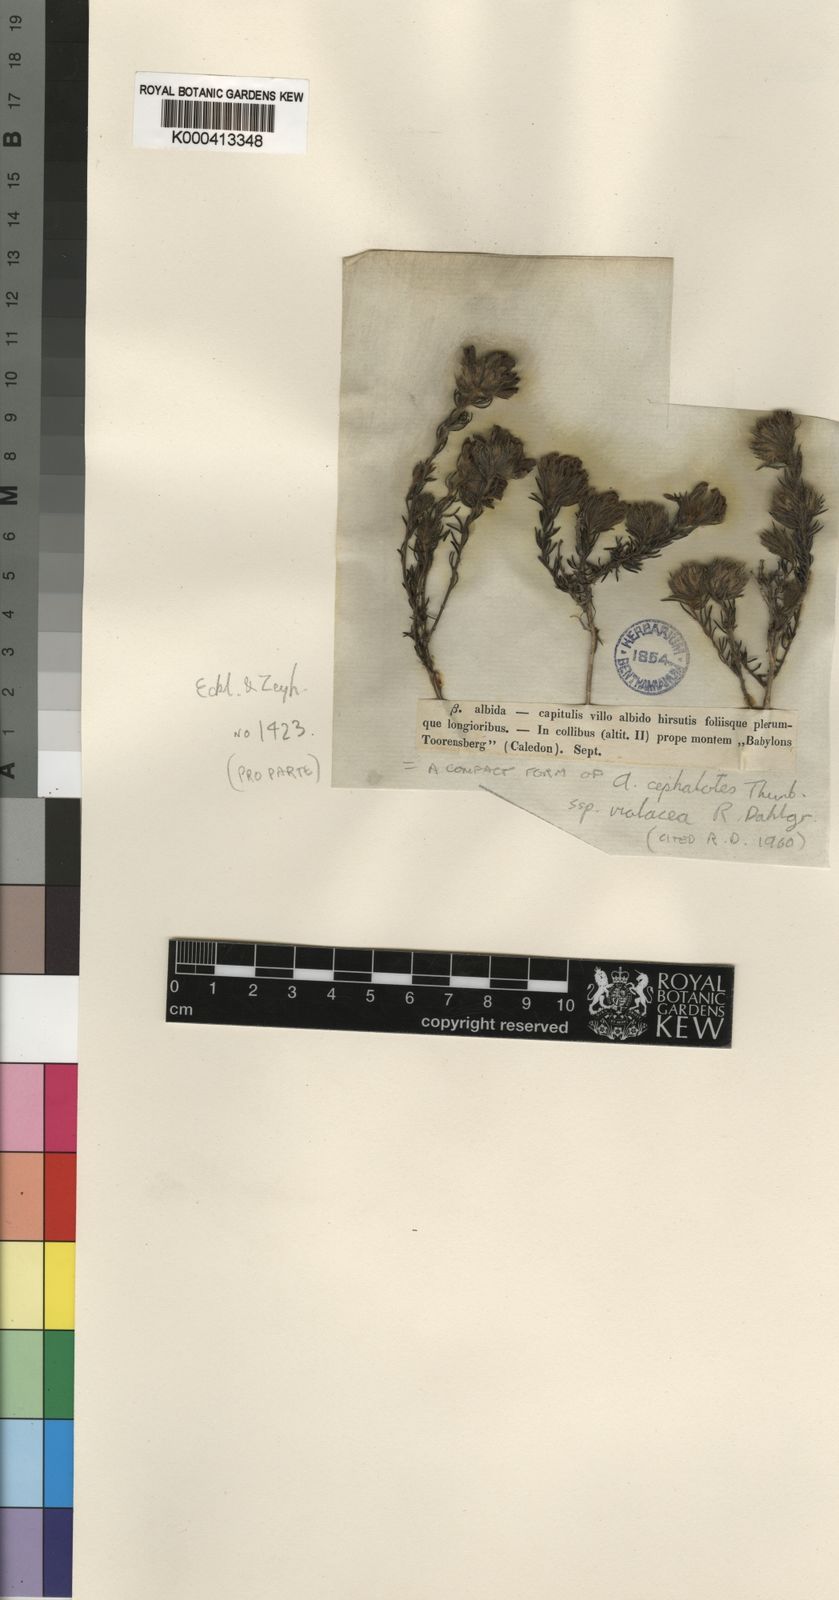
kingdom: Plantae
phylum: Tracheophyta
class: Magnoliopsida
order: Fabales
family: Fabaceae
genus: Aspalathus
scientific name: Aspalathus cephalotes
